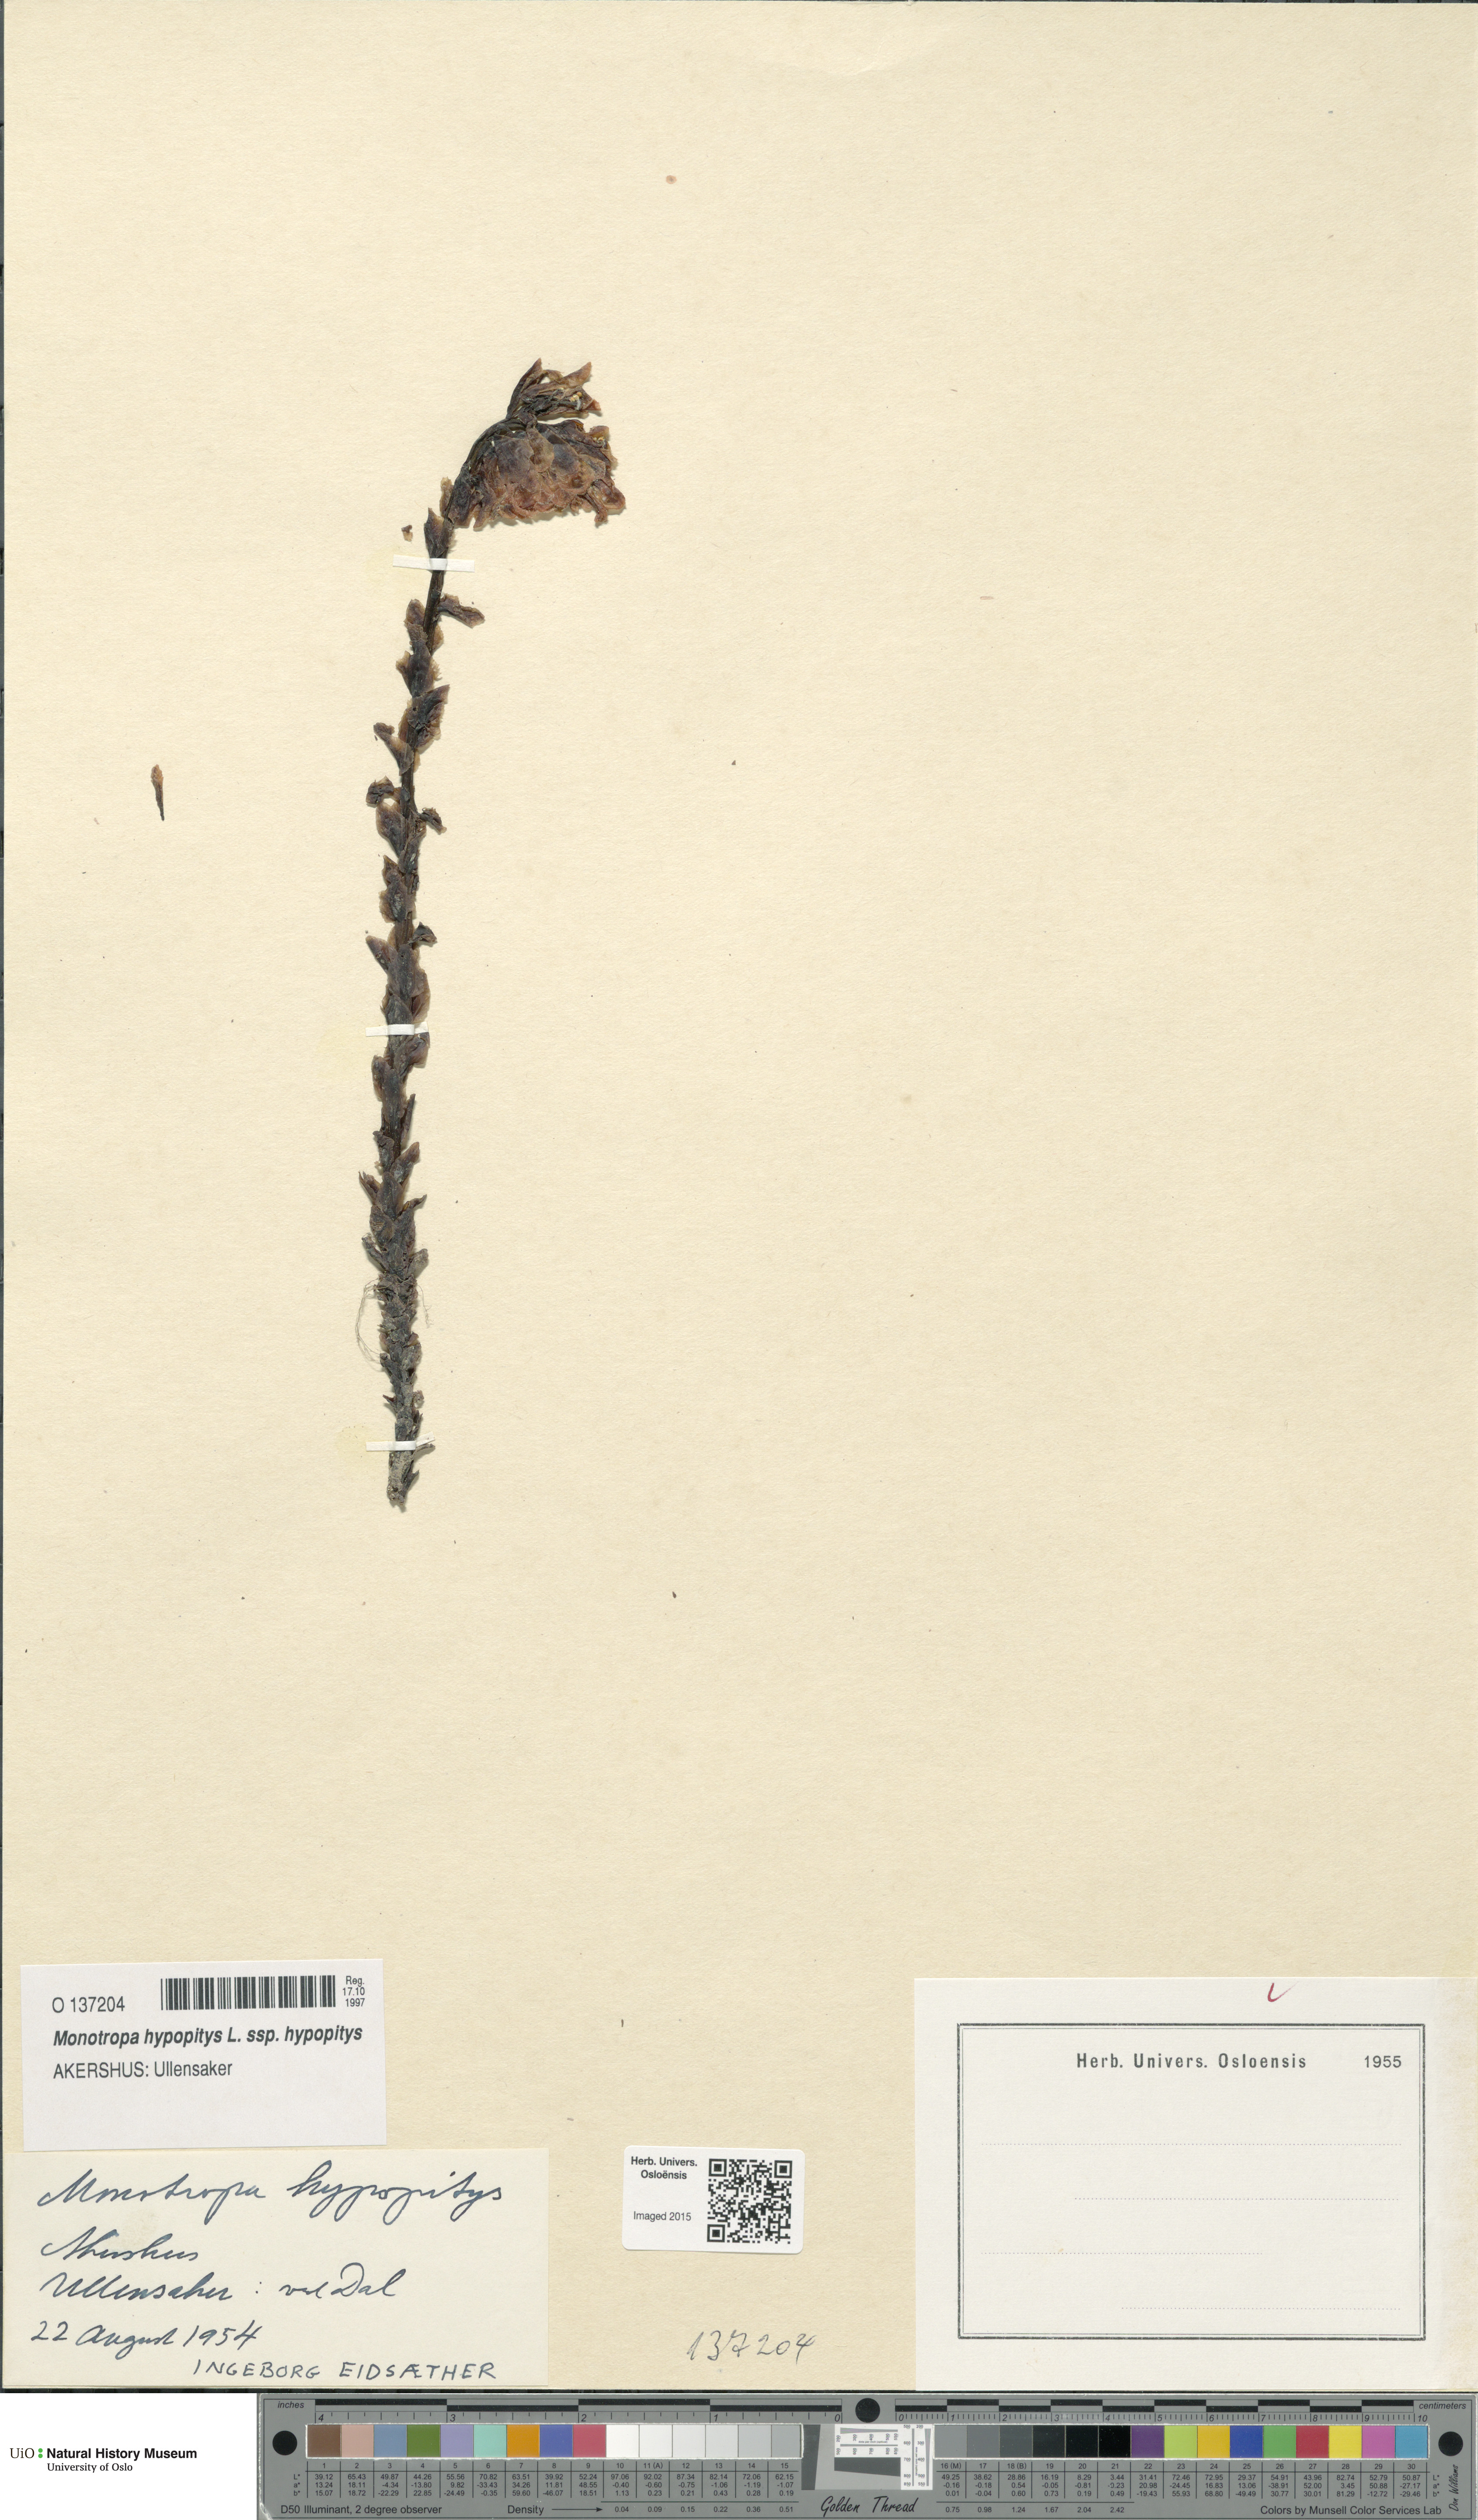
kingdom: Plantae
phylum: Tracheophyta
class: Magnoliopsida
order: Ericales
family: Ericaceae
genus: Hypopitys
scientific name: Hypopitys monotropa
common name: Yellow bird's-nest
